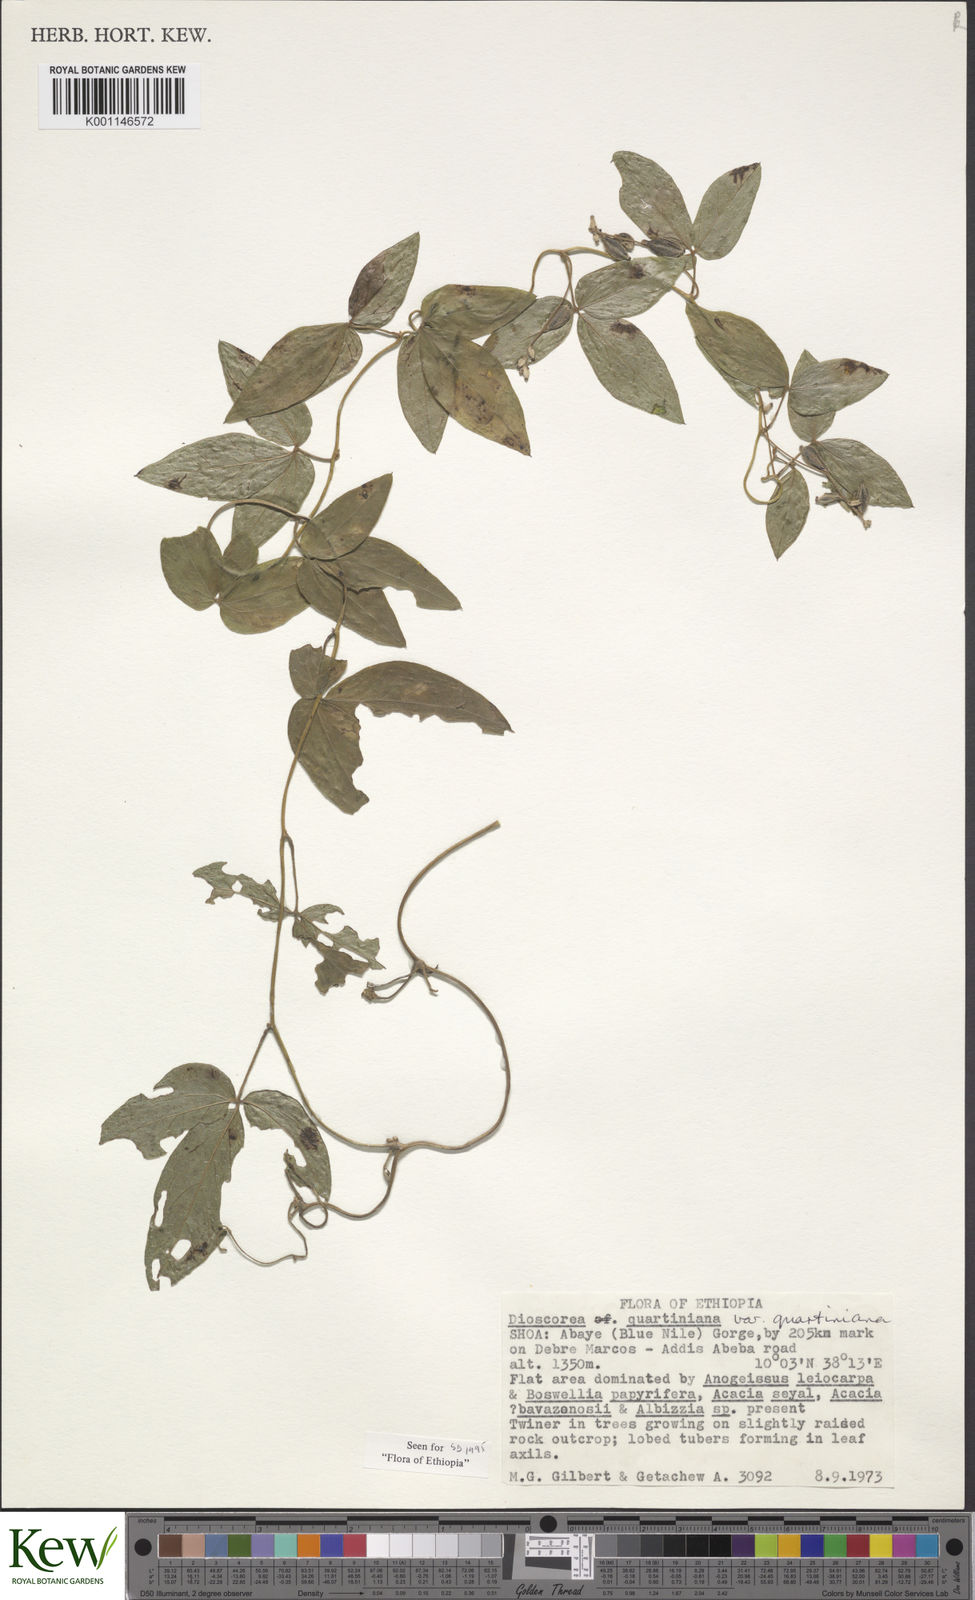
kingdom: Plantae
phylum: Tracheophyta
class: Liliopsida
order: Dioscoreales
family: Dioscoreaceae
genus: Dioscorea
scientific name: Dioscorea quartiniana
